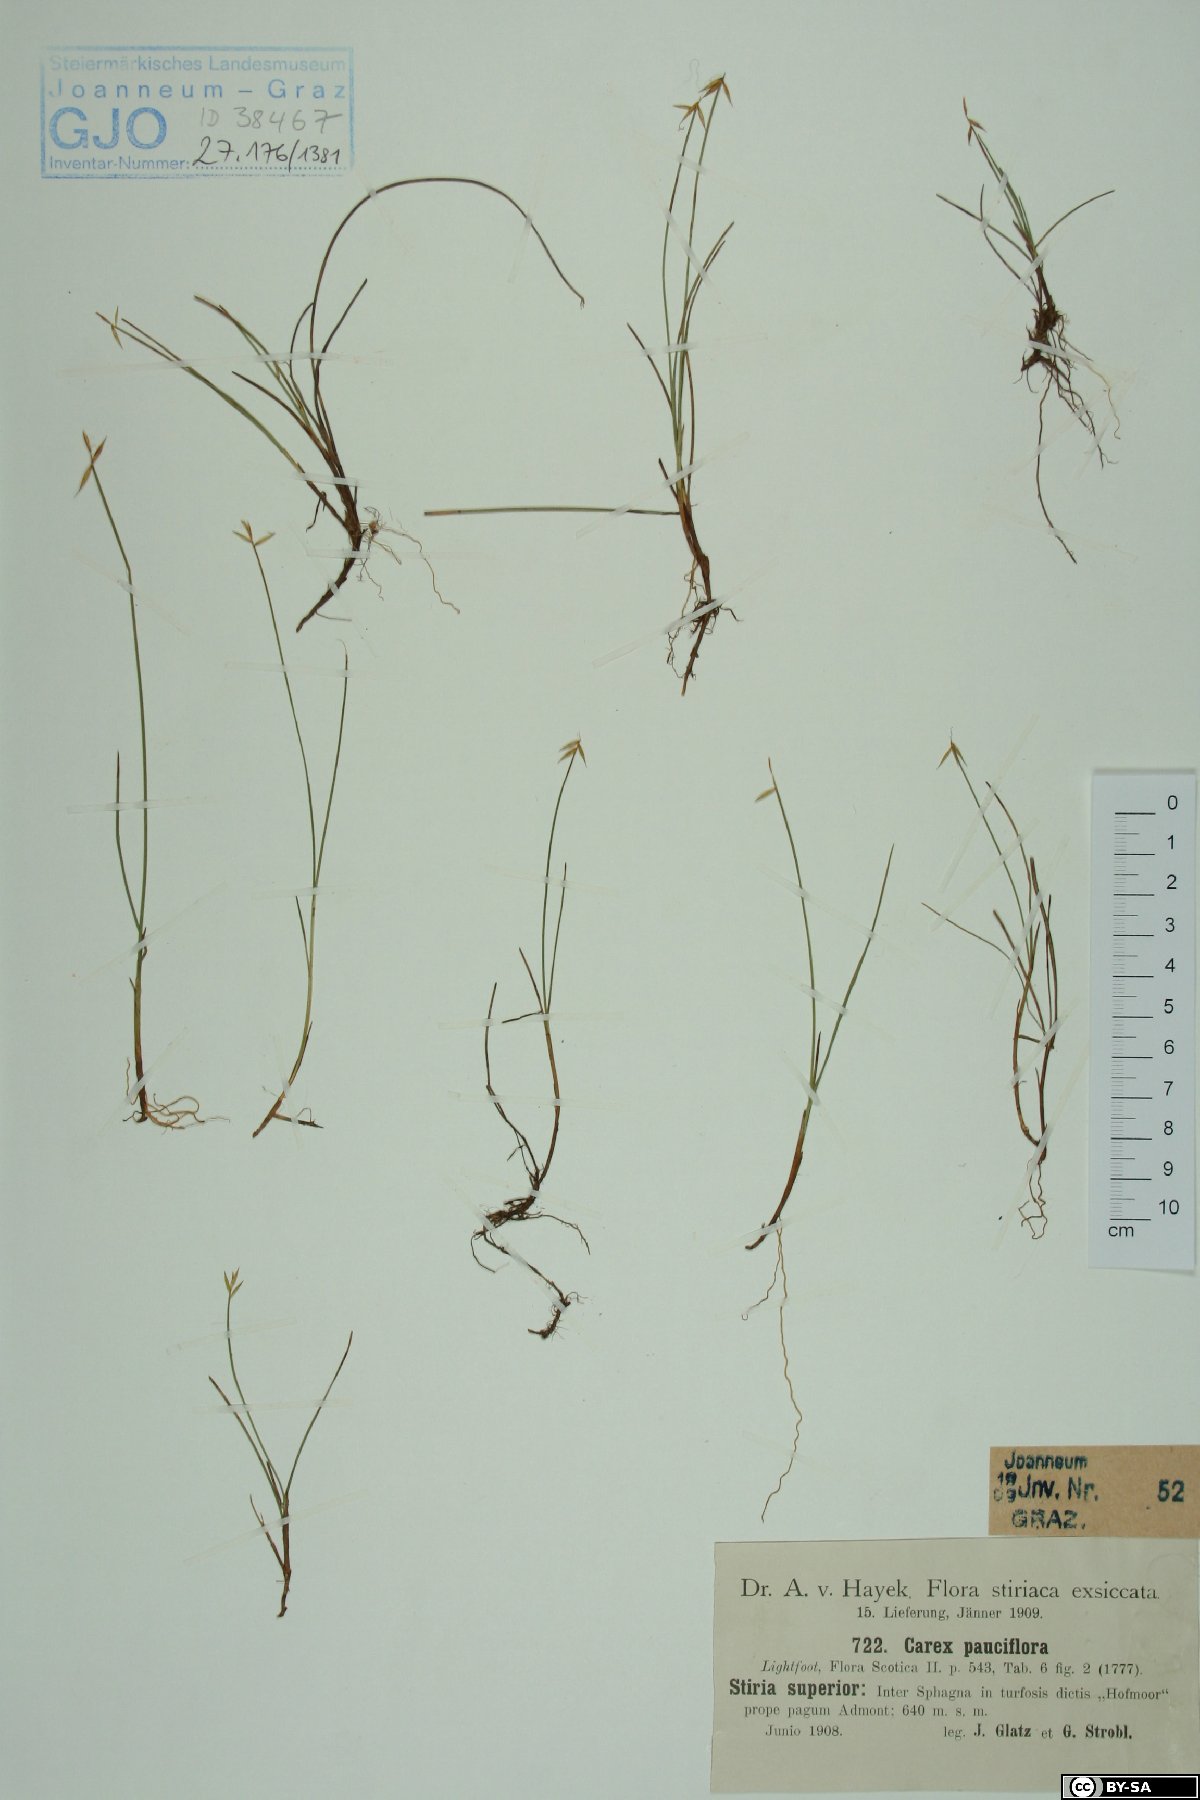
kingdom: Plantae
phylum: Tracheophyta
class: Liliopsida
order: Poales
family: Cyperaceae
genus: Carex
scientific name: Carex pauciflora
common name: Few-flowered sedge
